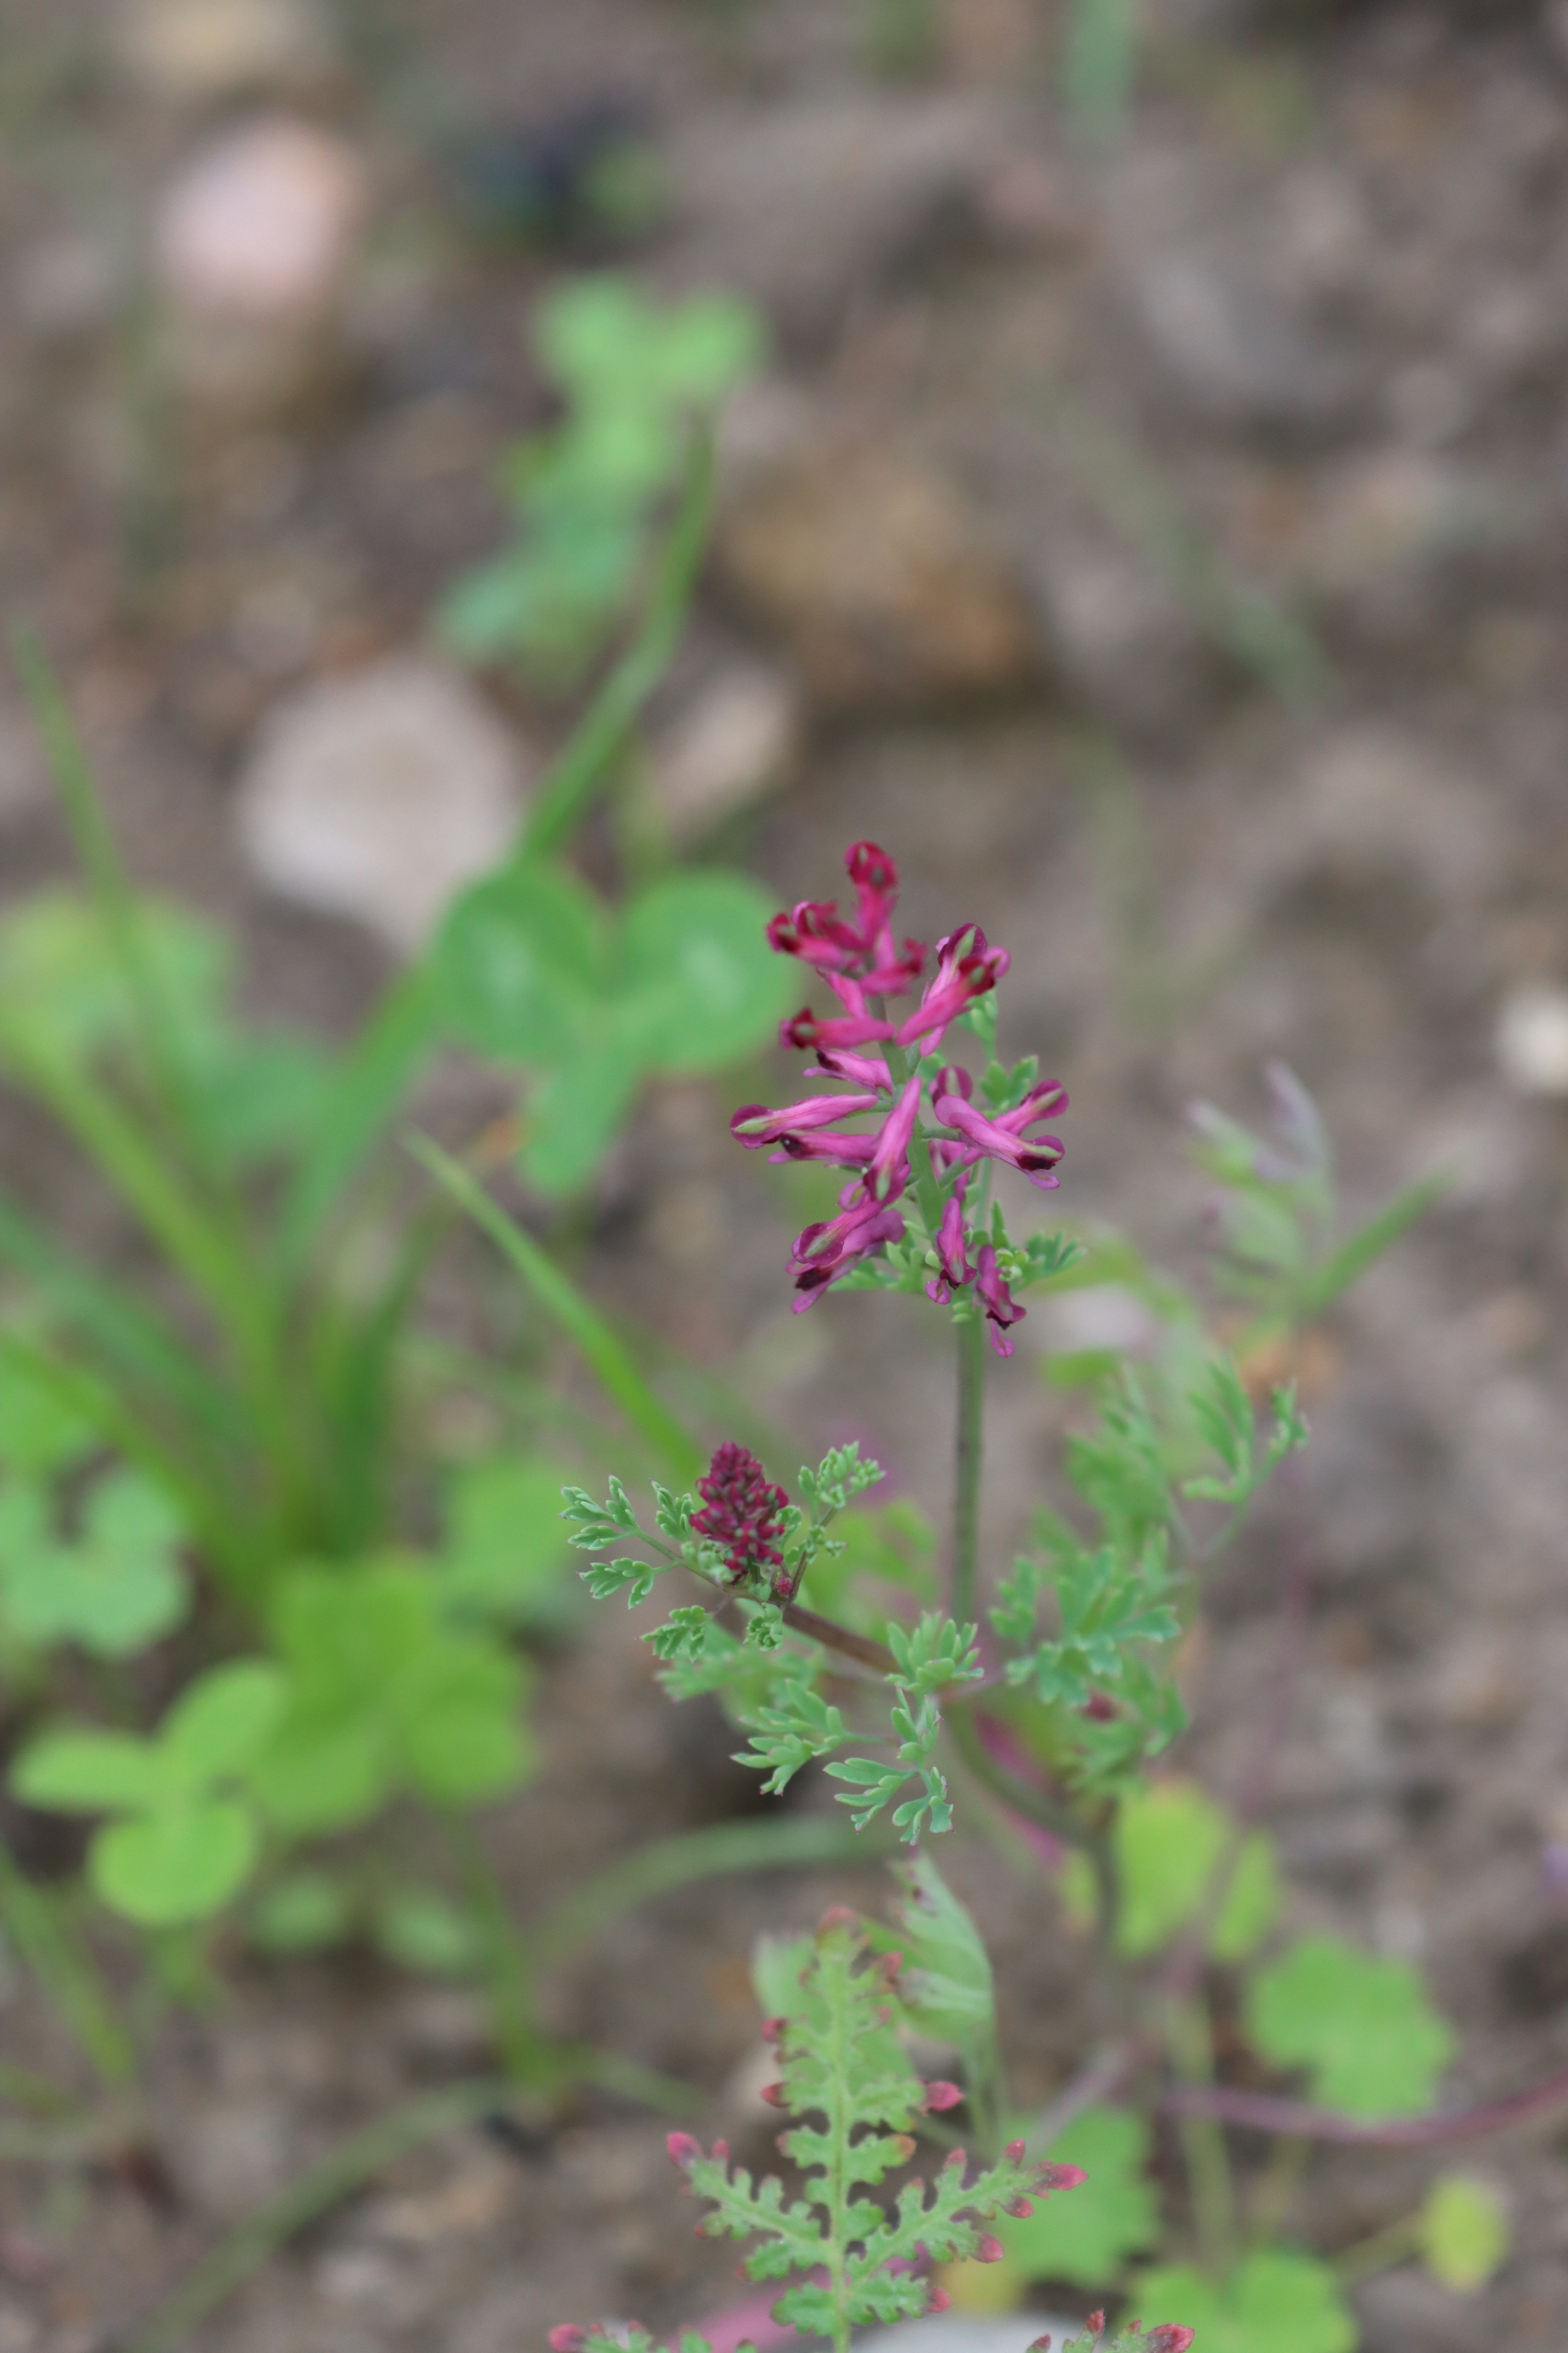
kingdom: Plantae
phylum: Tracheophyta
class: Magnoliopsida
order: Ranunculales
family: Papaveraceae
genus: Fumaria
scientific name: Fumaria officinalis
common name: Læge-jordrøg
